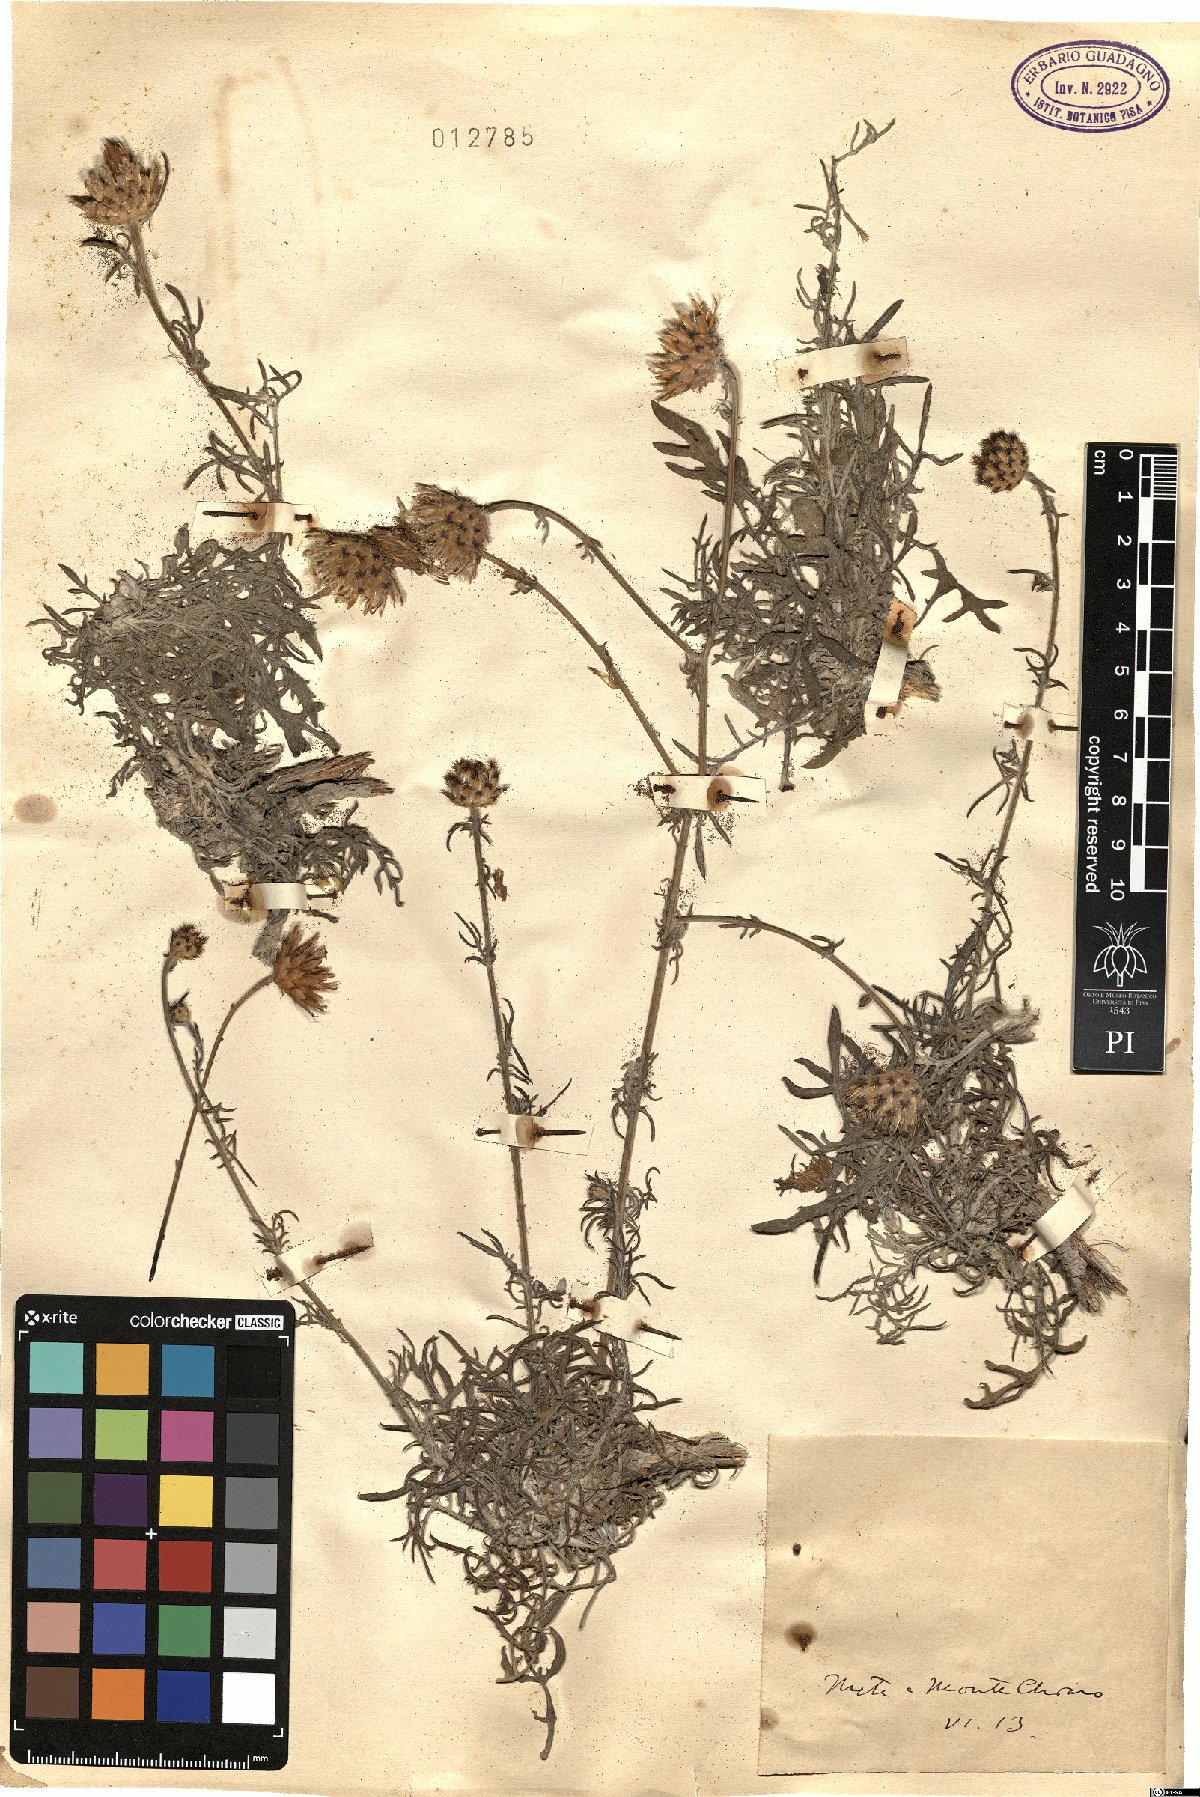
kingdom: Plantae
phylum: Tracheophyta
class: Magnoliopsida
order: Asterales
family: Asteraceae
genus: Centaurea
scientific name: Centaurea
